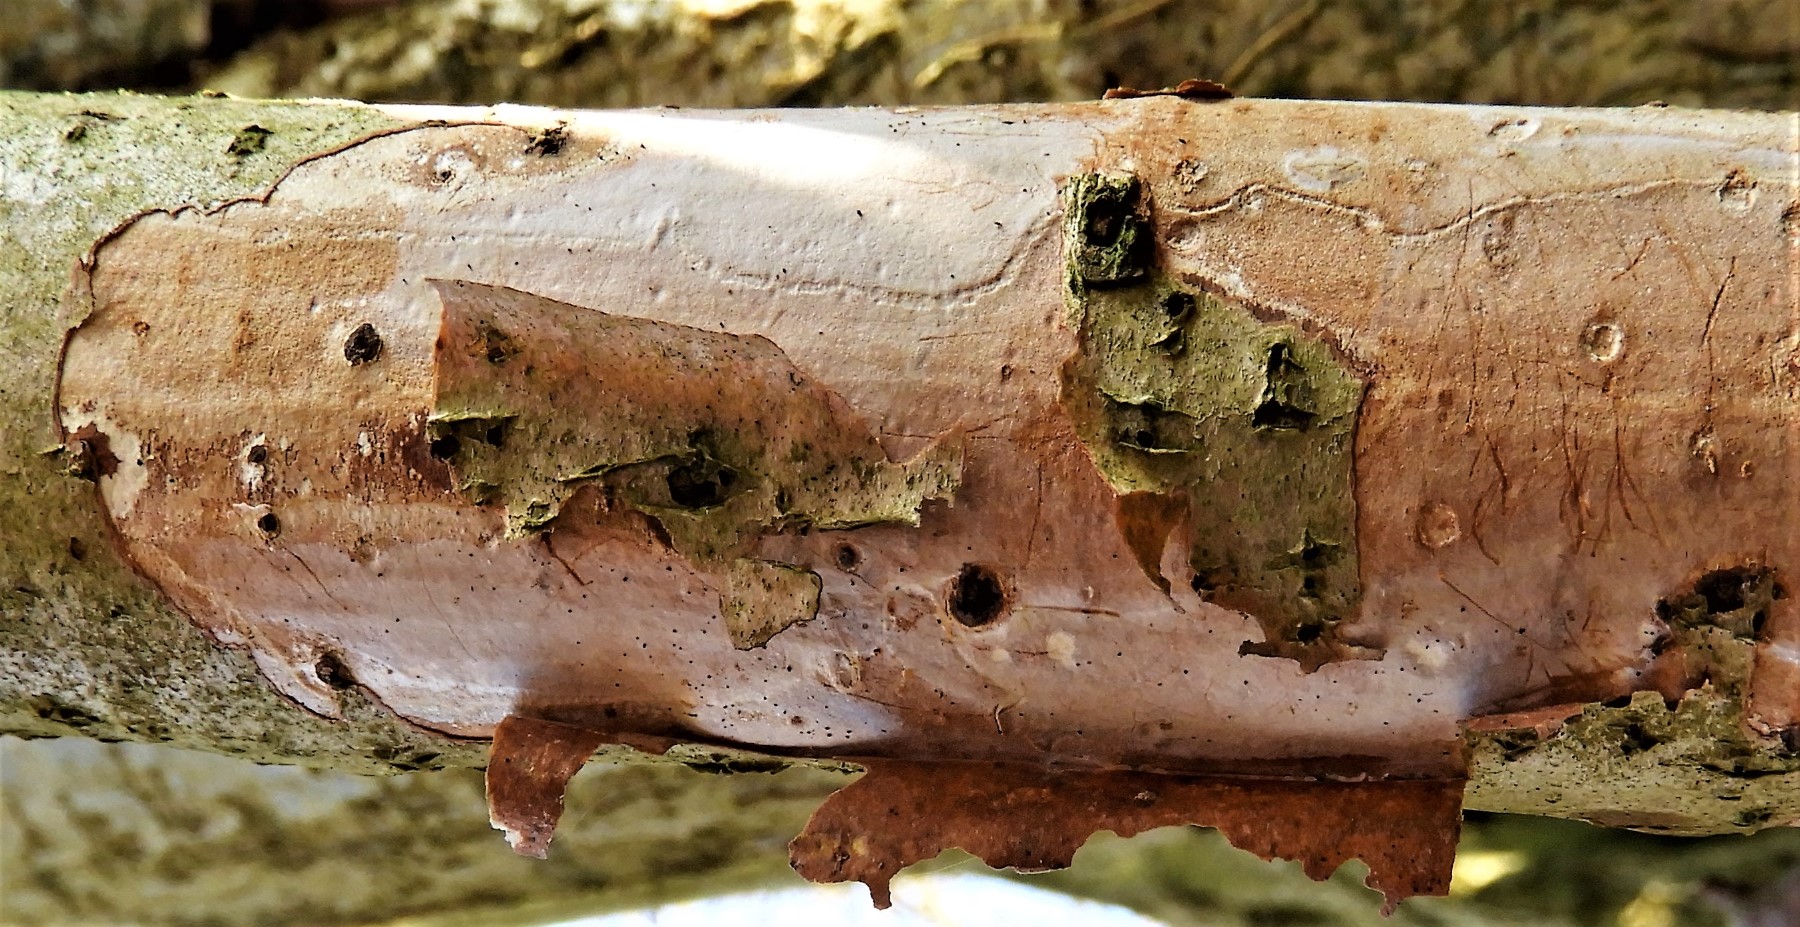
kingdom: Fungi
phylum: Basidiomycota
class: Agaricomycetes
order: Corticiales
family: Vuilleminiaceae
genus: Vuilleminia
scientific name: Vuilleminia coryli
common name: hassel-barksprænger
